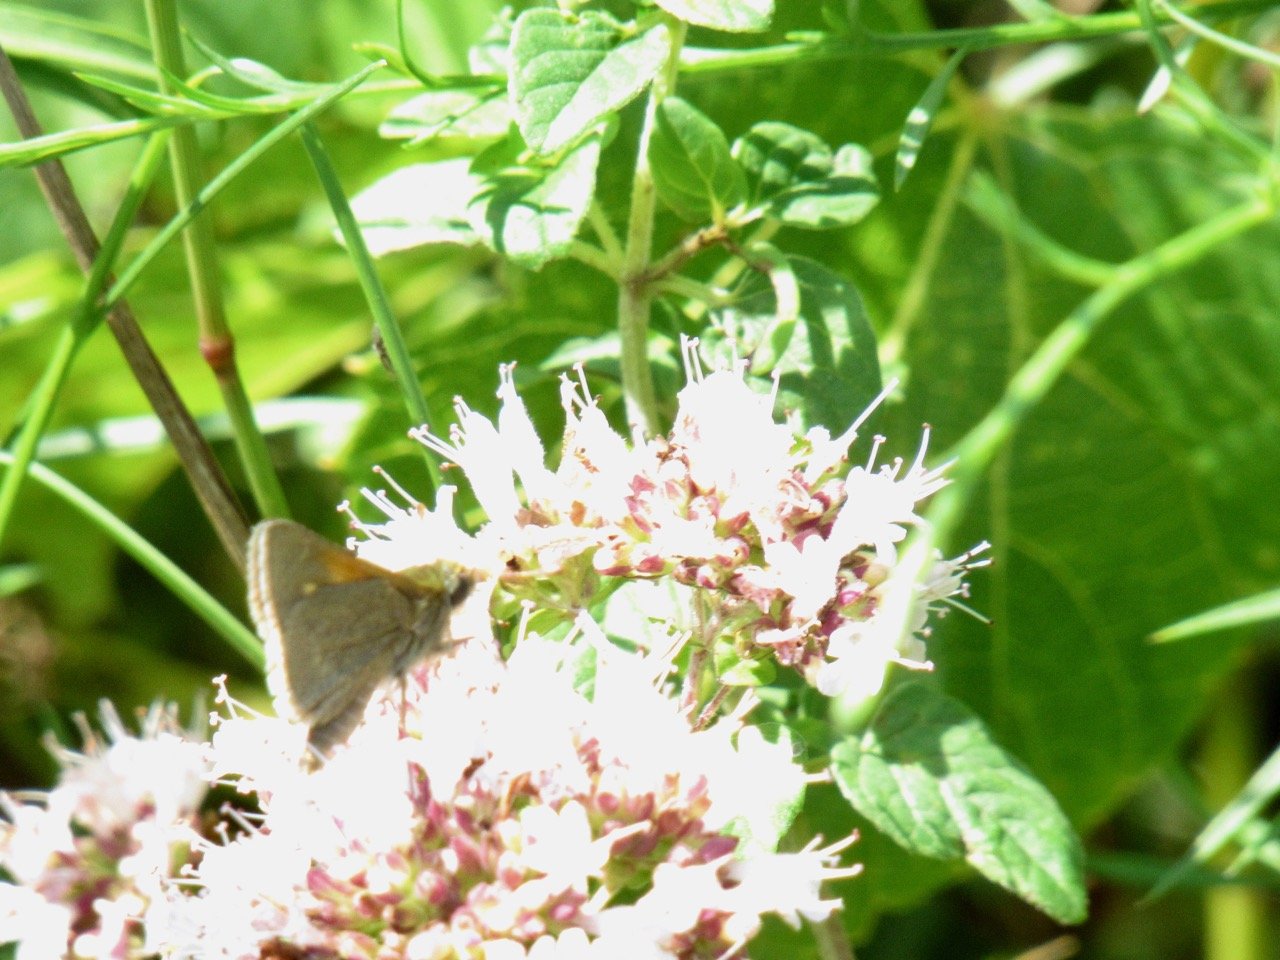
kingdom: Animalia
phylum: Arthropoda
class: Insecta
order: Lepidoptera
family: Hesperiidae
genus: Polites
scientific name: Polites themistocles
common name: Tawny-edged Skipper
